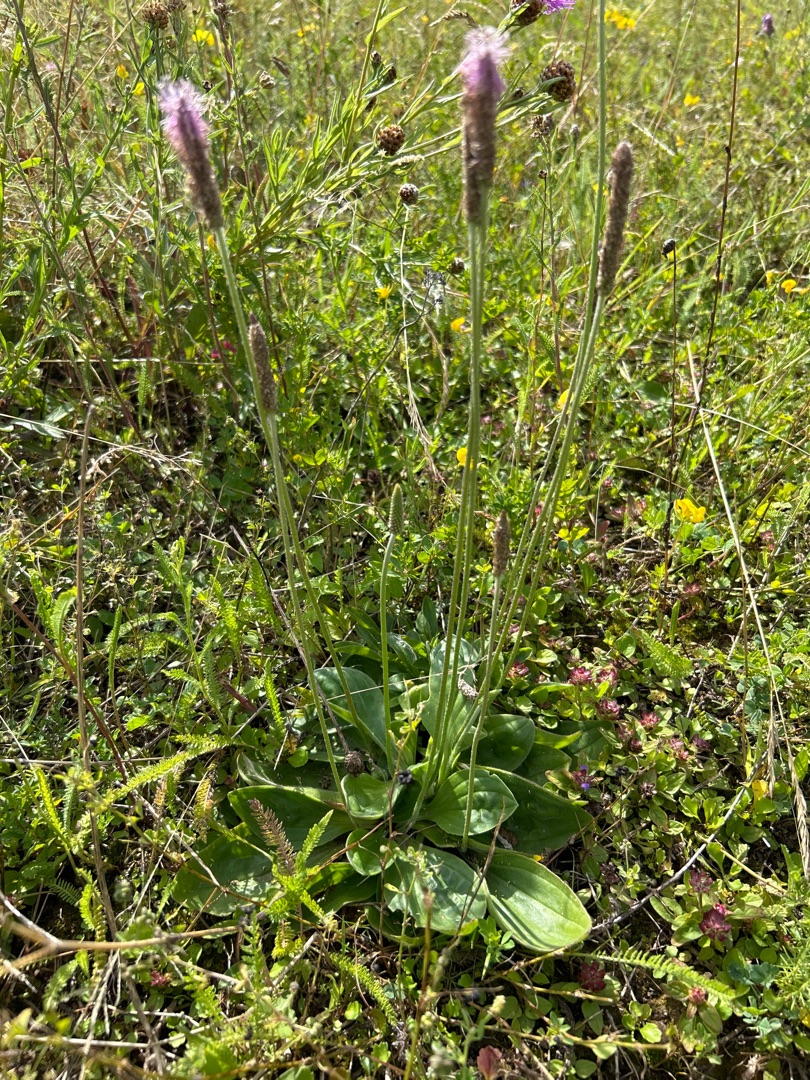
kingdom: Plantae
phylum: Tracheophyta
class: Magnoliopsida
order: Lamiales
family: Plantaginaceae
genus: Plantago
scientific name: Plantago media
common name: Dunet vejbred
